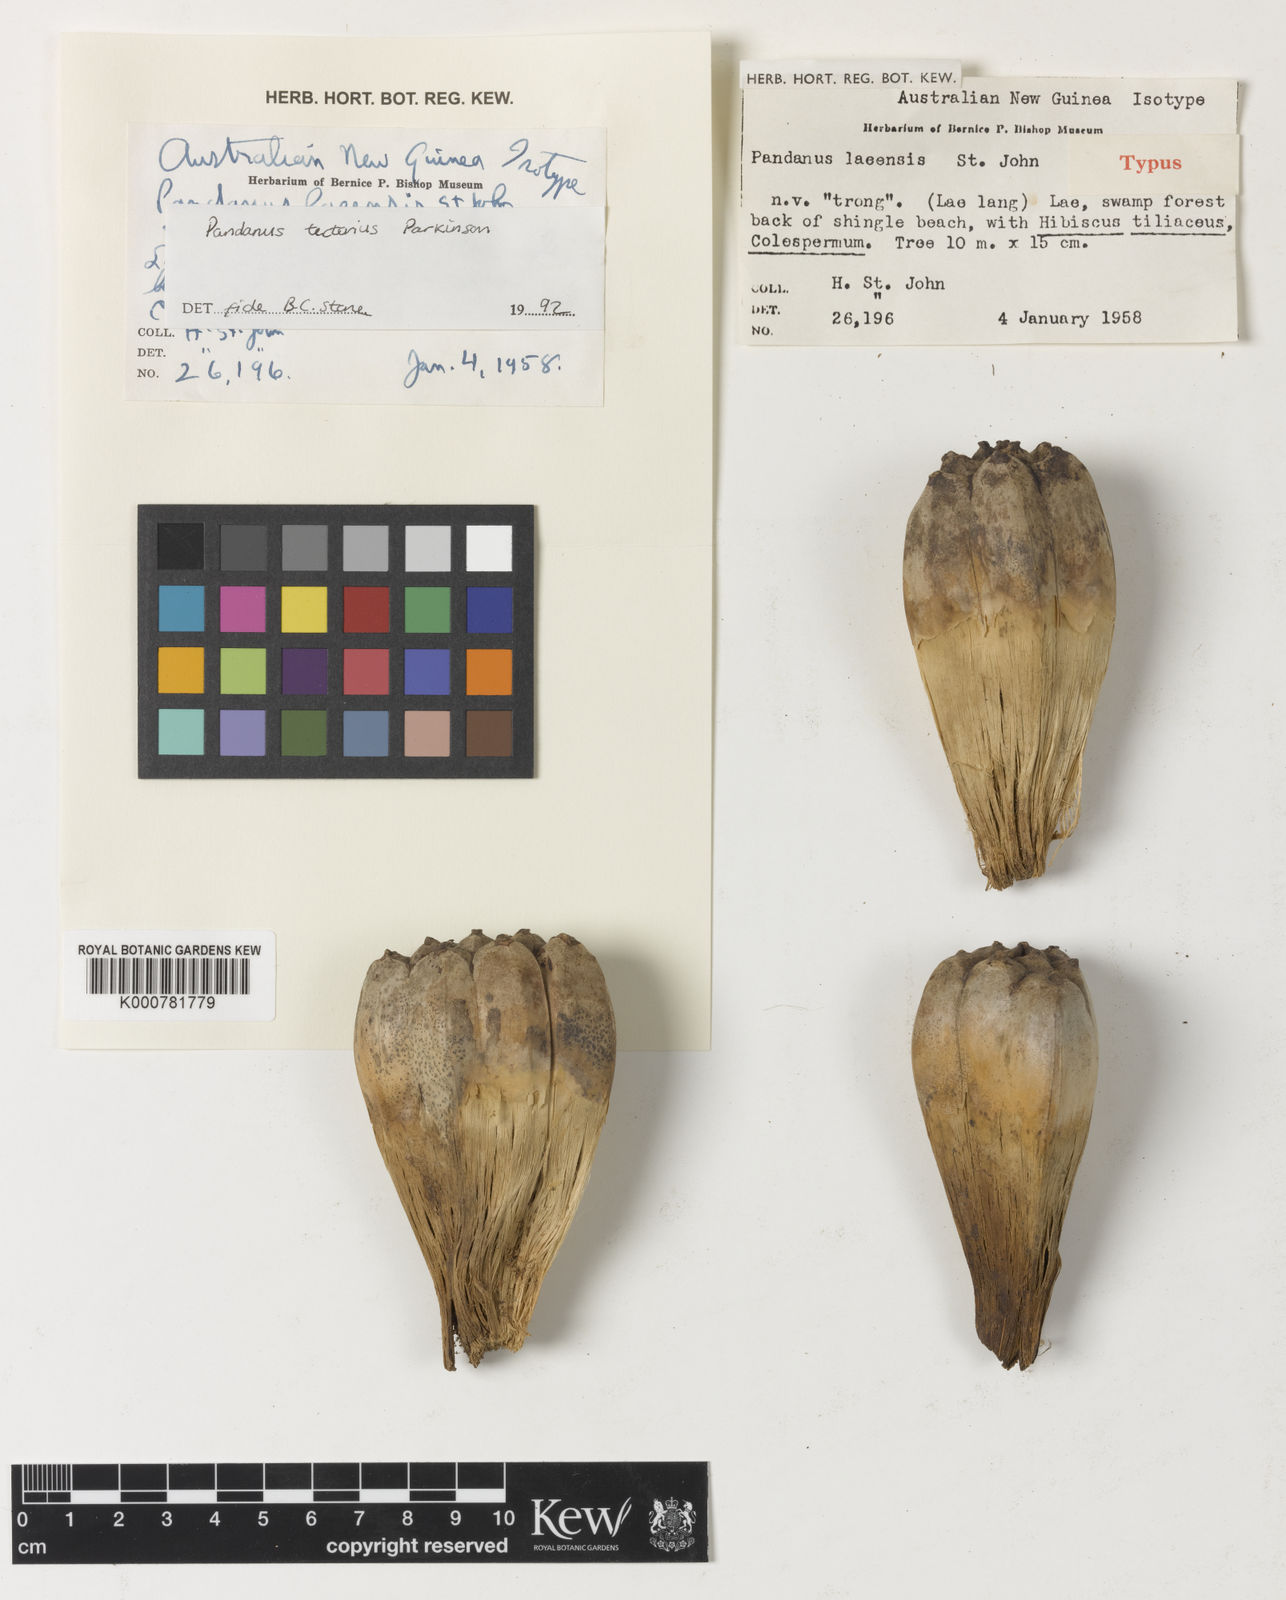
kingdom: Plantae
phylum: Tracheophyta
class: Liliopsida
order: Pandanales
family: Pandanaceae
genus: Pandanus
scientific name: Pandanus
